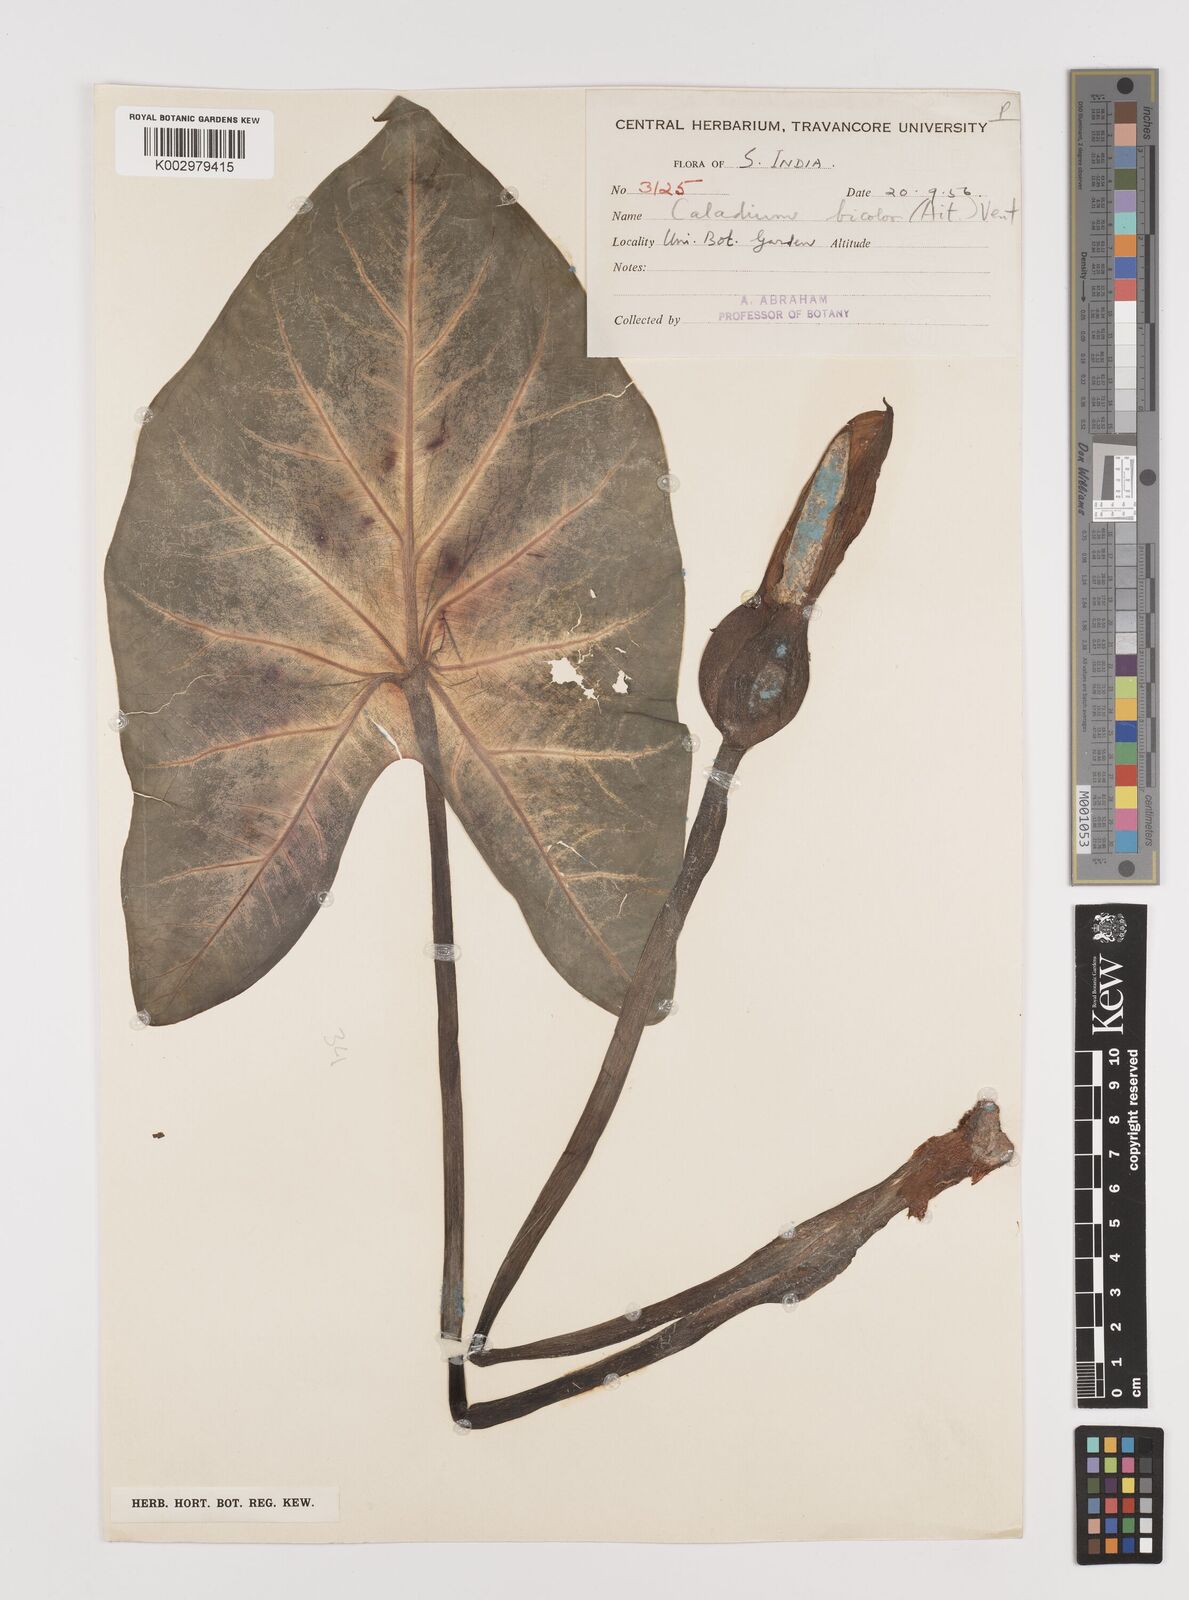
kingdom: Plantae
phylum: Tracheophyta
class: Liliopsida
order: Alismatales
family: Araceae
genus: Caladium
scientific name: Caladium bicolor
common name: Artist's pallet
